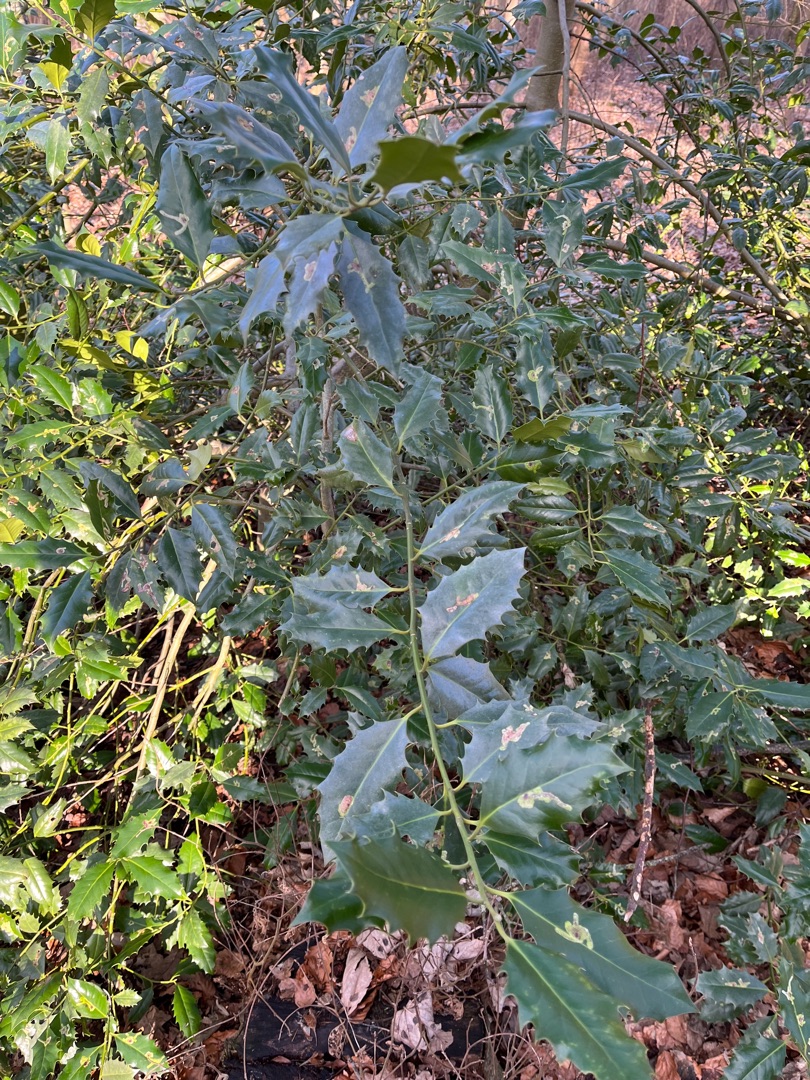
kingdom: Plantae
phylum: Tracheophyta
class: Magnoliopsida
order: Aquifoliales
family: Aquifoliaceae
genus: Ilex
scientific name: Ilex aquifolium
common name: Kristtorn
